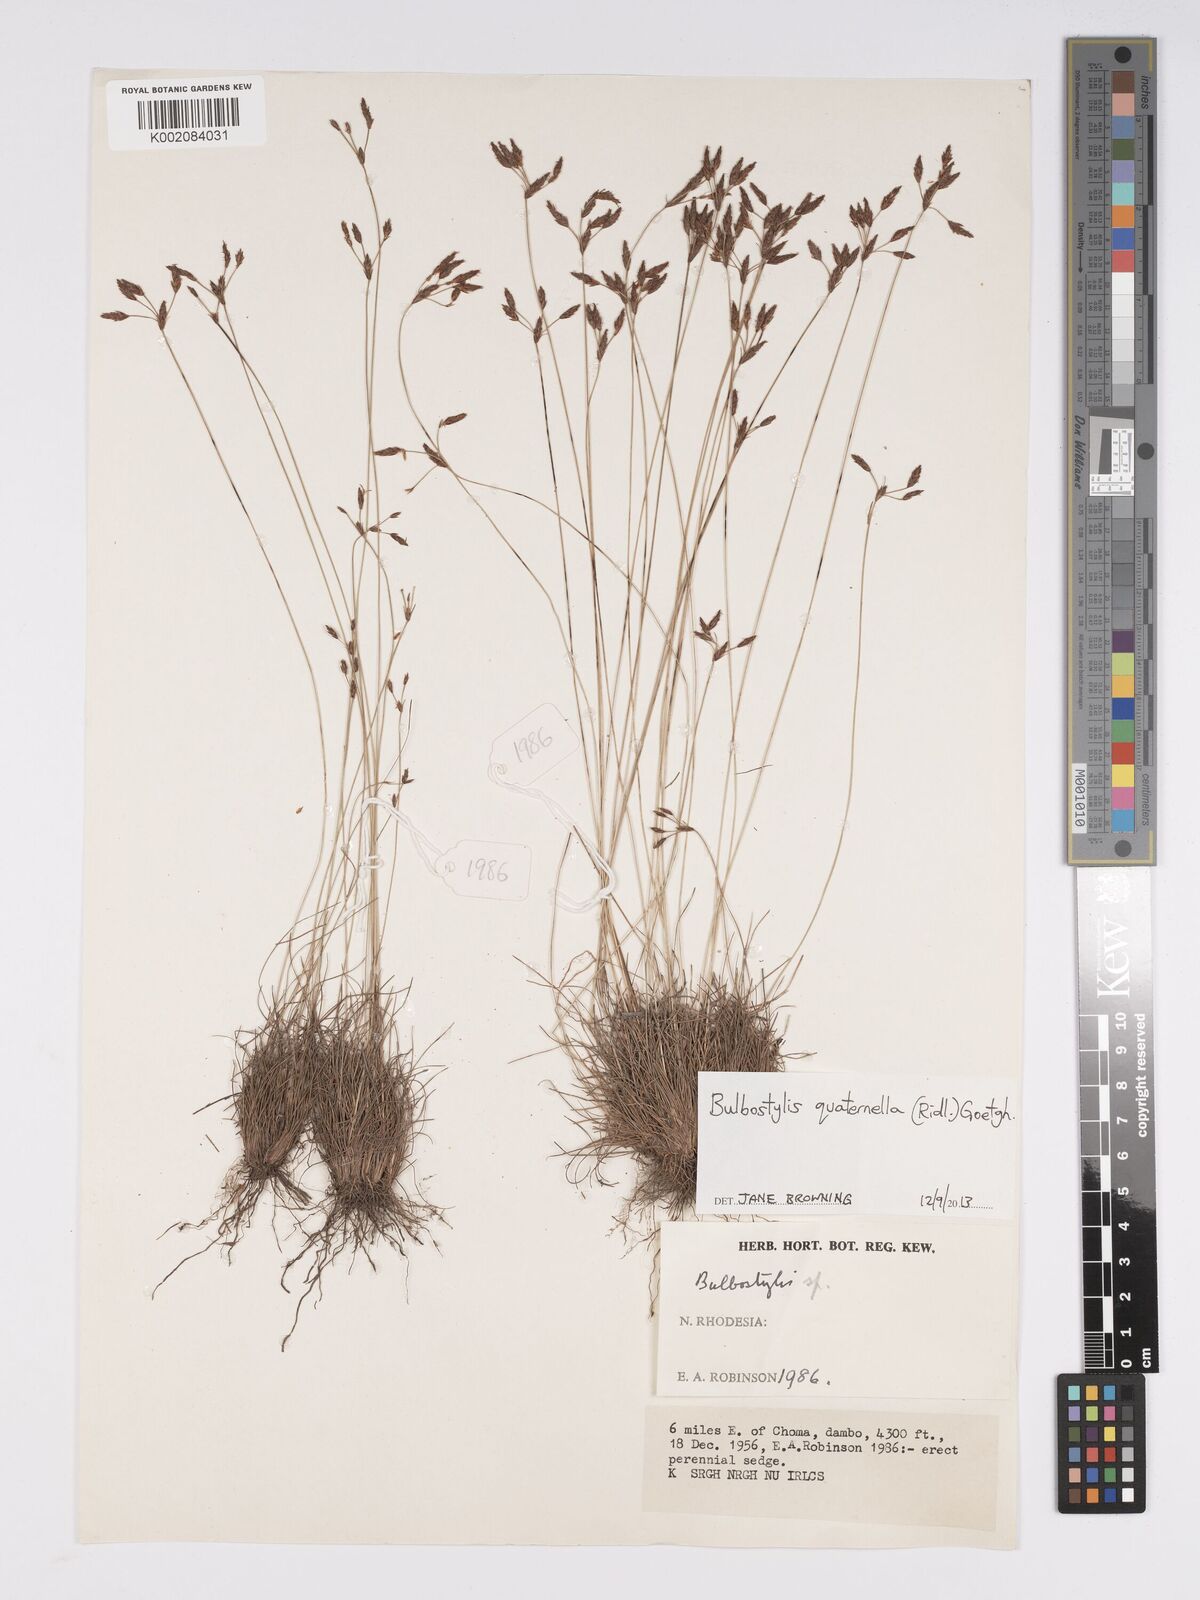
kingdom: Plantae
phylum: Tracheophyta
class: Liliopsida
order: Poales
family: Cyperaceae
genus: Bulbostylis
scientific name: Bulbostylis quaternella
